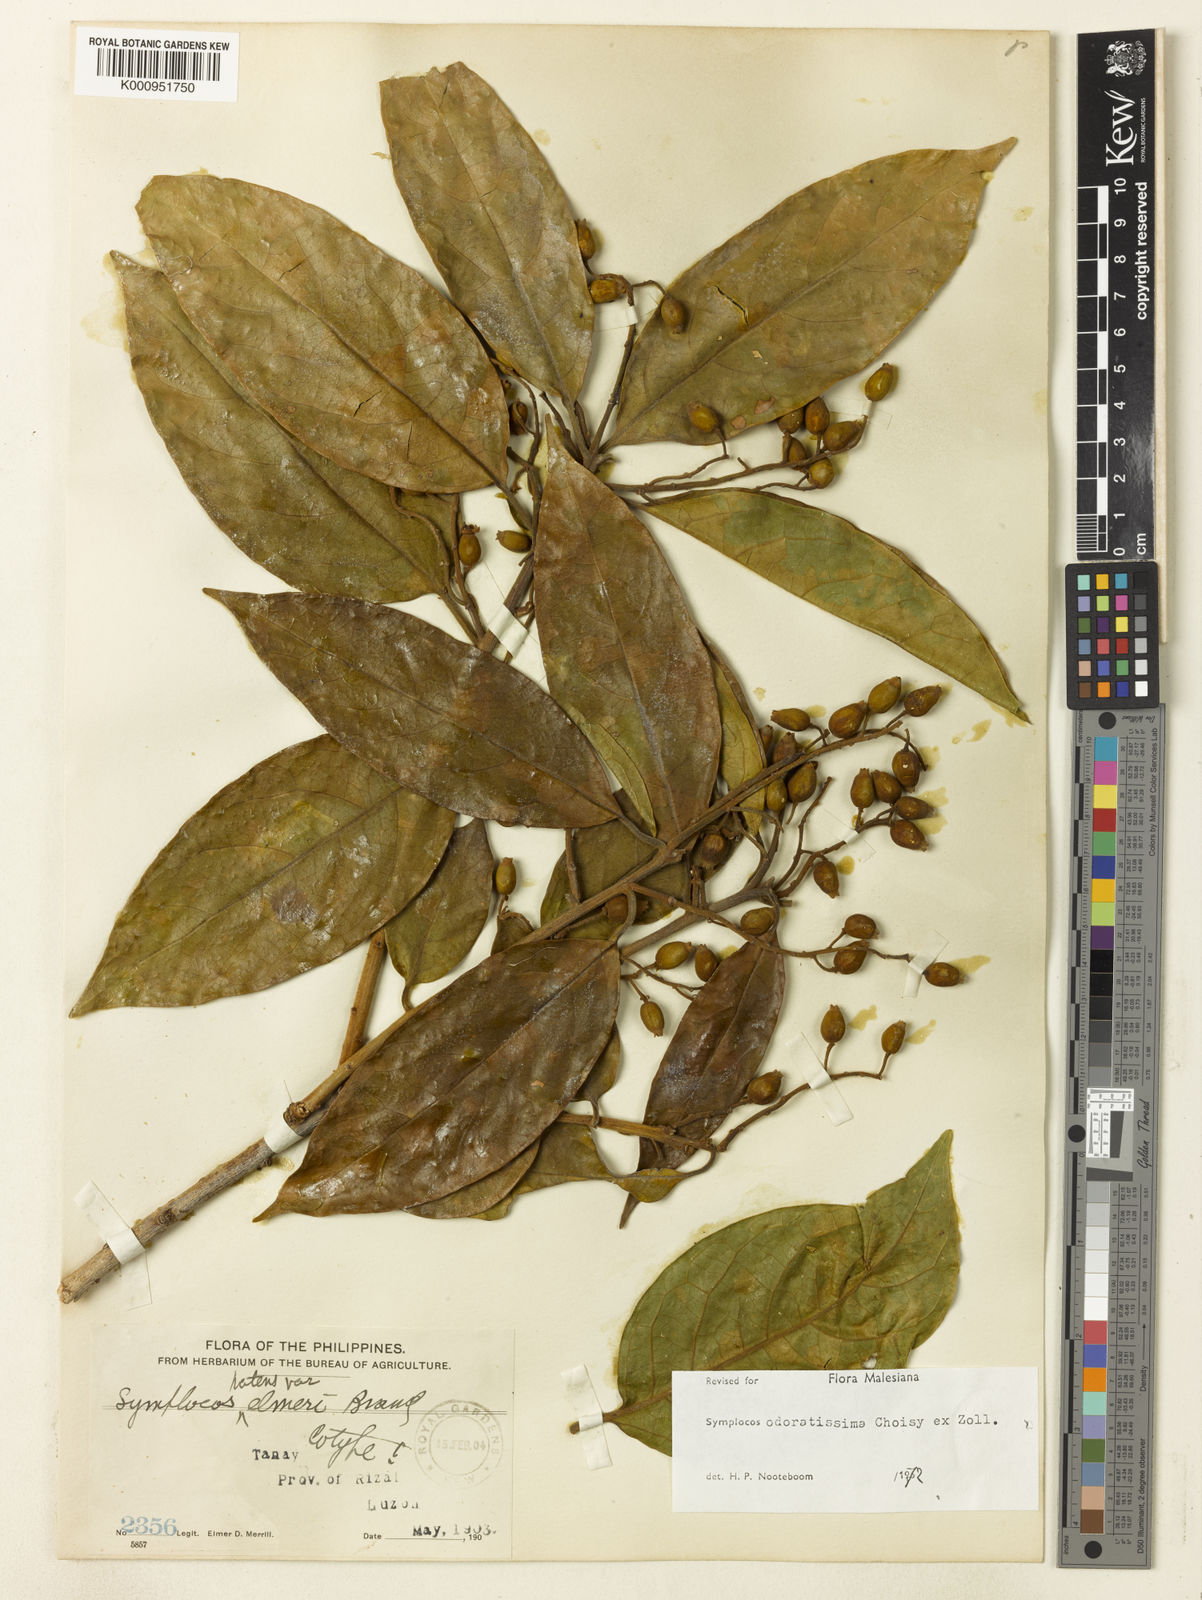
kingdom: Plantae
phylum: Tracheophyta
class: Magnoliopsida
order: Ericales
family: Symplocaceae
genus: Symplocos
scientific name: Symplocos odoratissima
